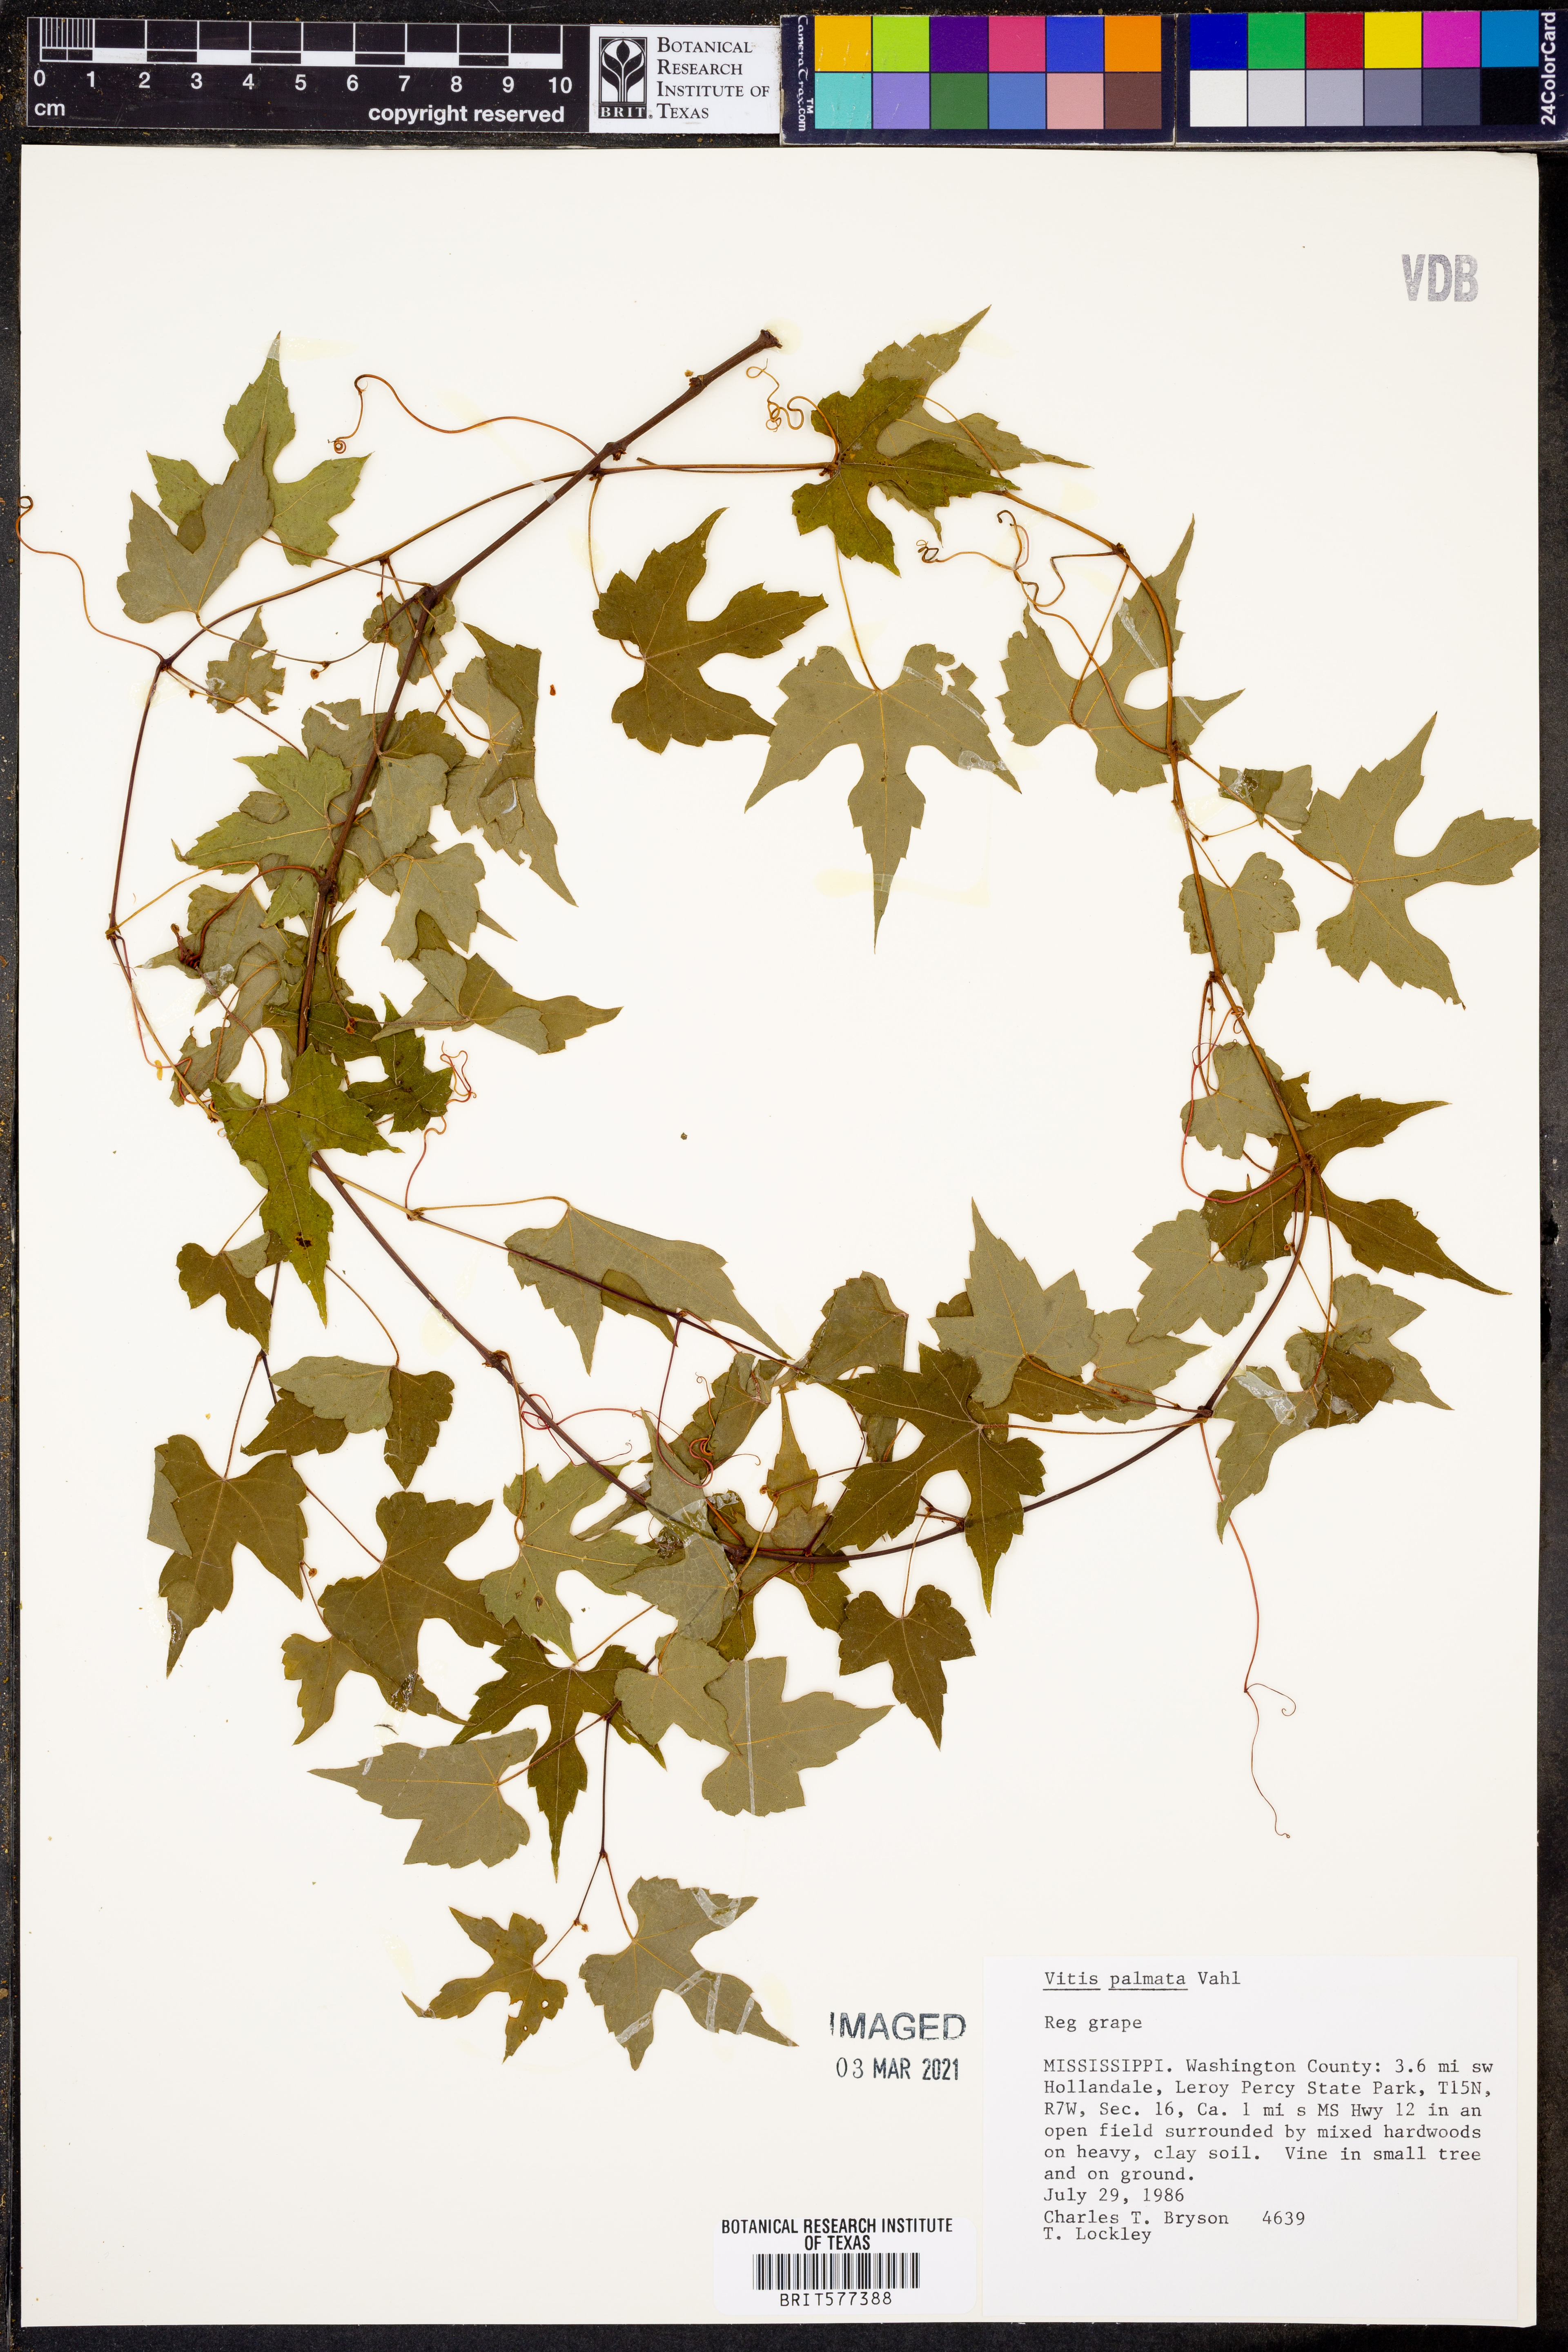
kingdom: Plantae
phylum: Tracheophyta
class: Magnoliopsida
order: Vitales
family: Vitaceae
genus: Vitis
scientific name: Vitis palmata
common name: Catbird grape
